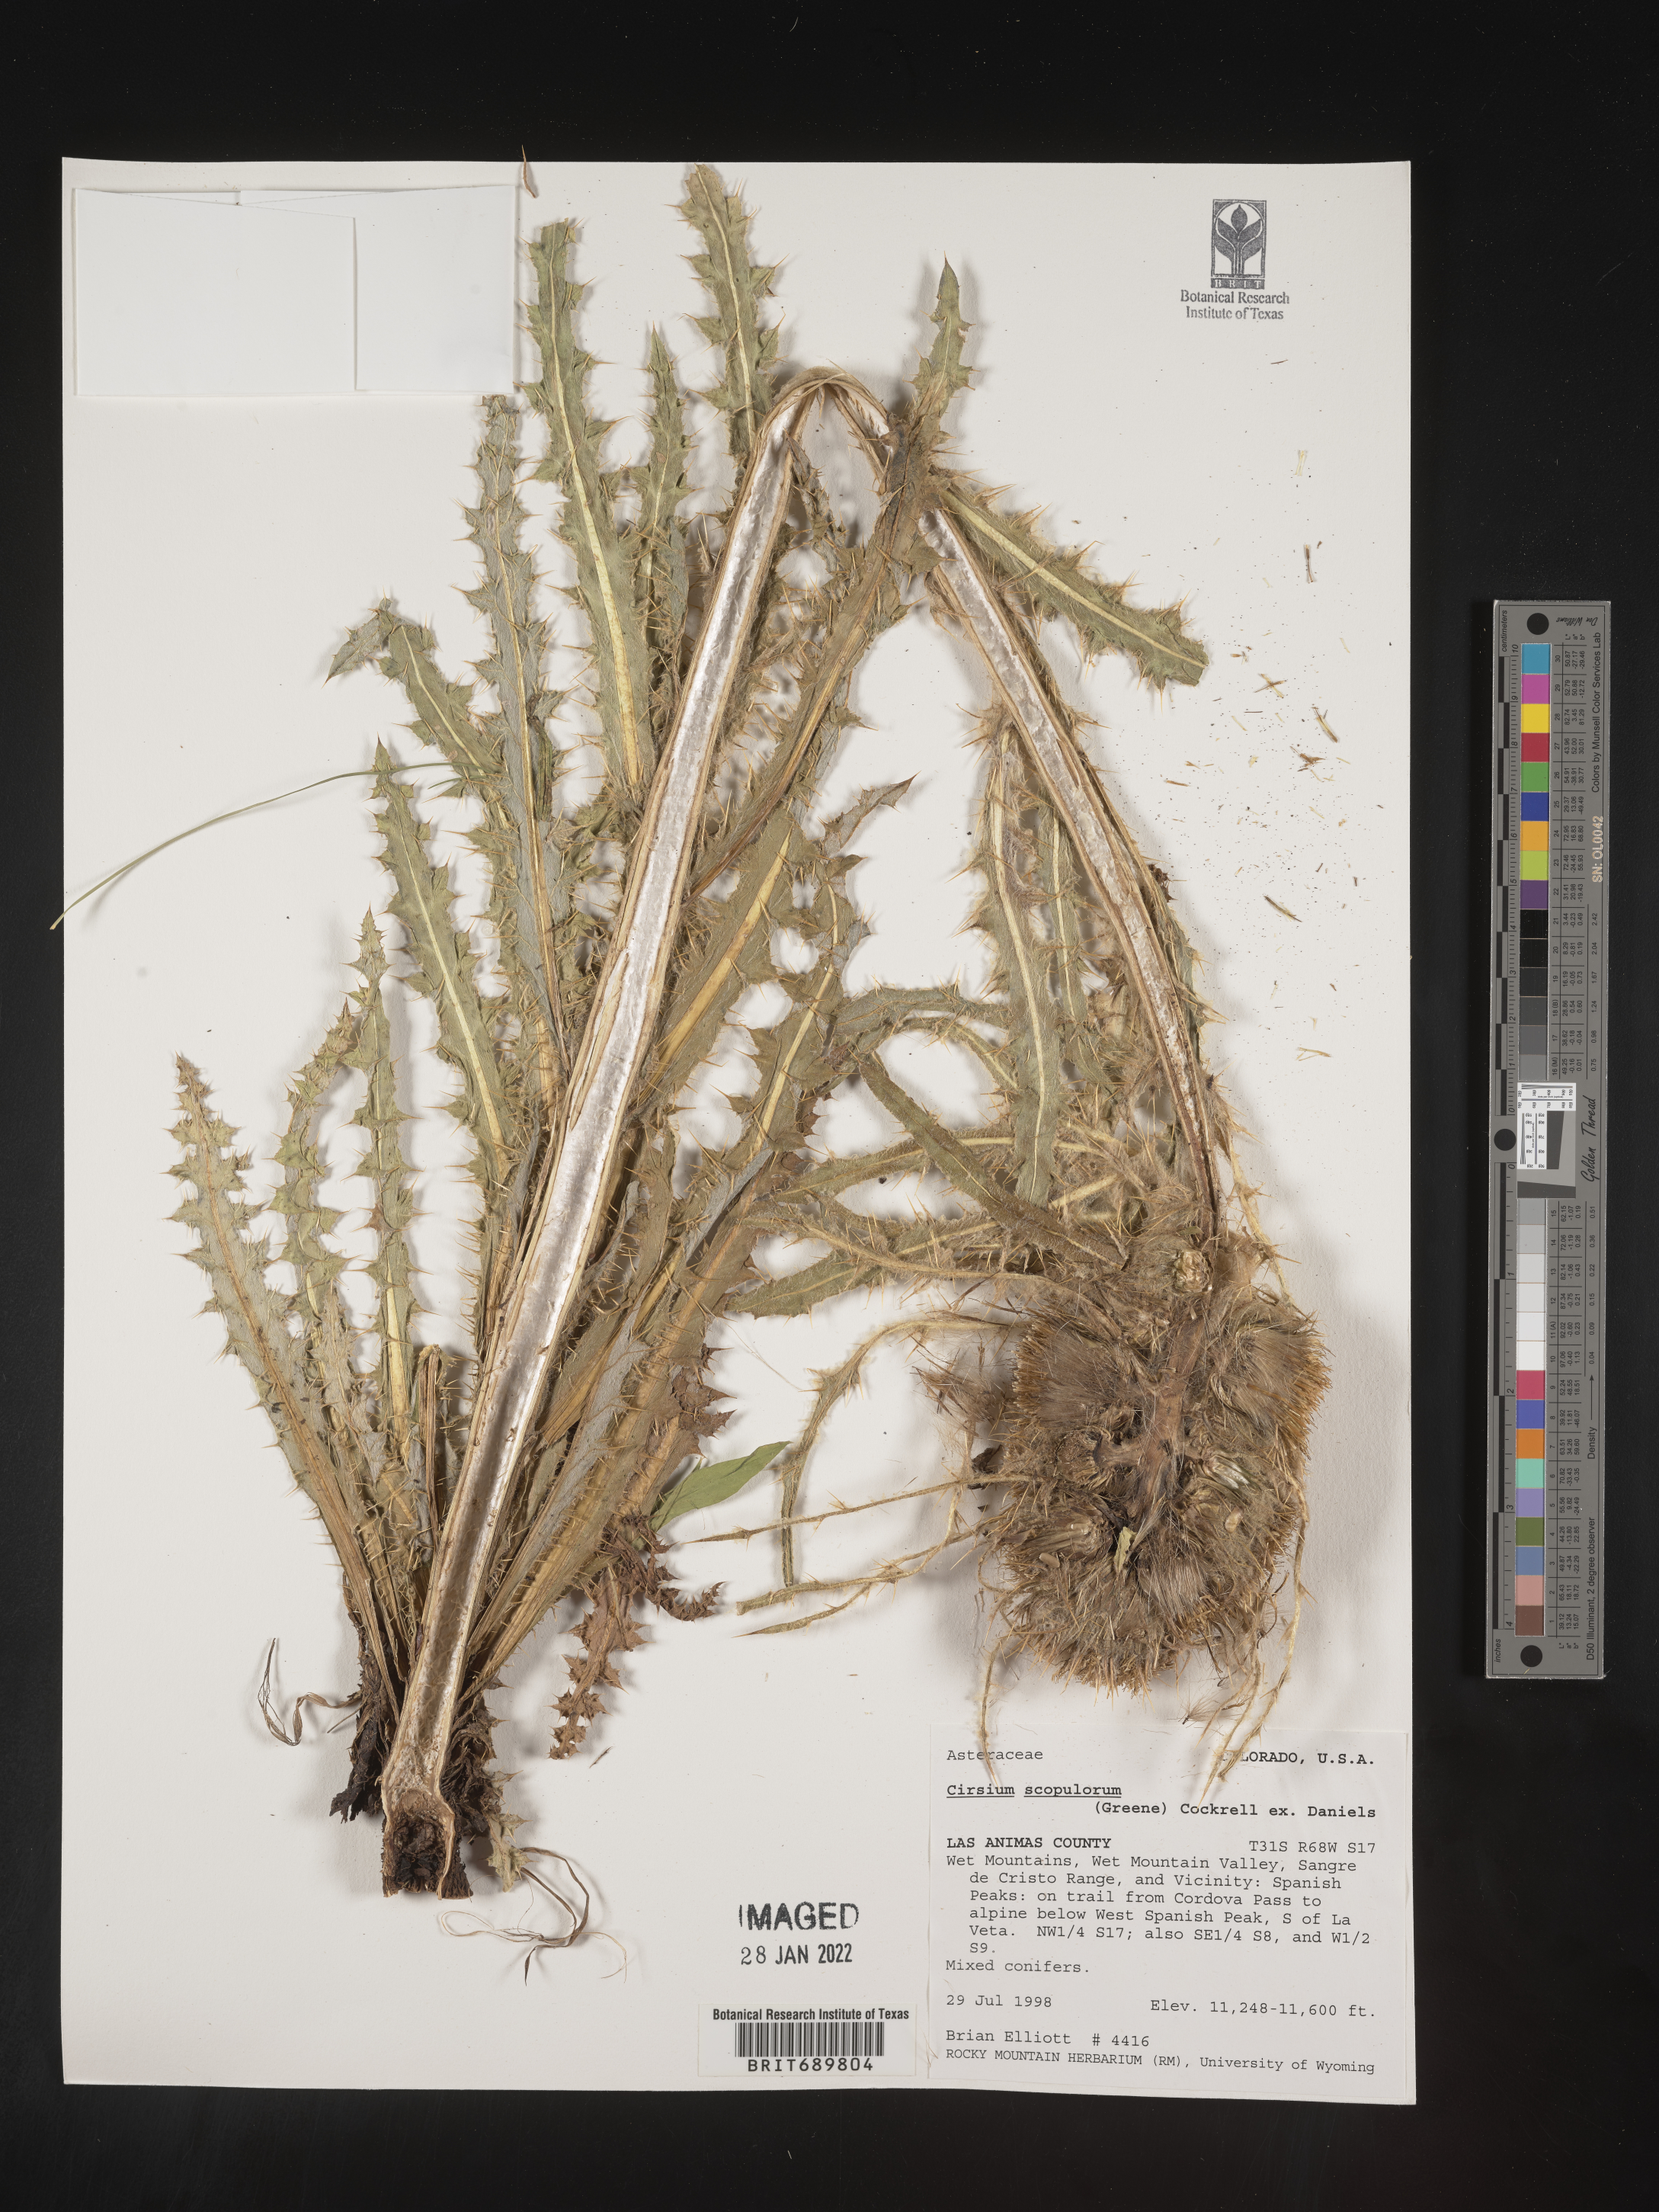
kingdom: Plantae
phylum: Tracheophyta
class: Magnoliopsida
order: Asterales
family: Asteraceae
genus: Cirsium
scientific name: Cirsium scopulorum
